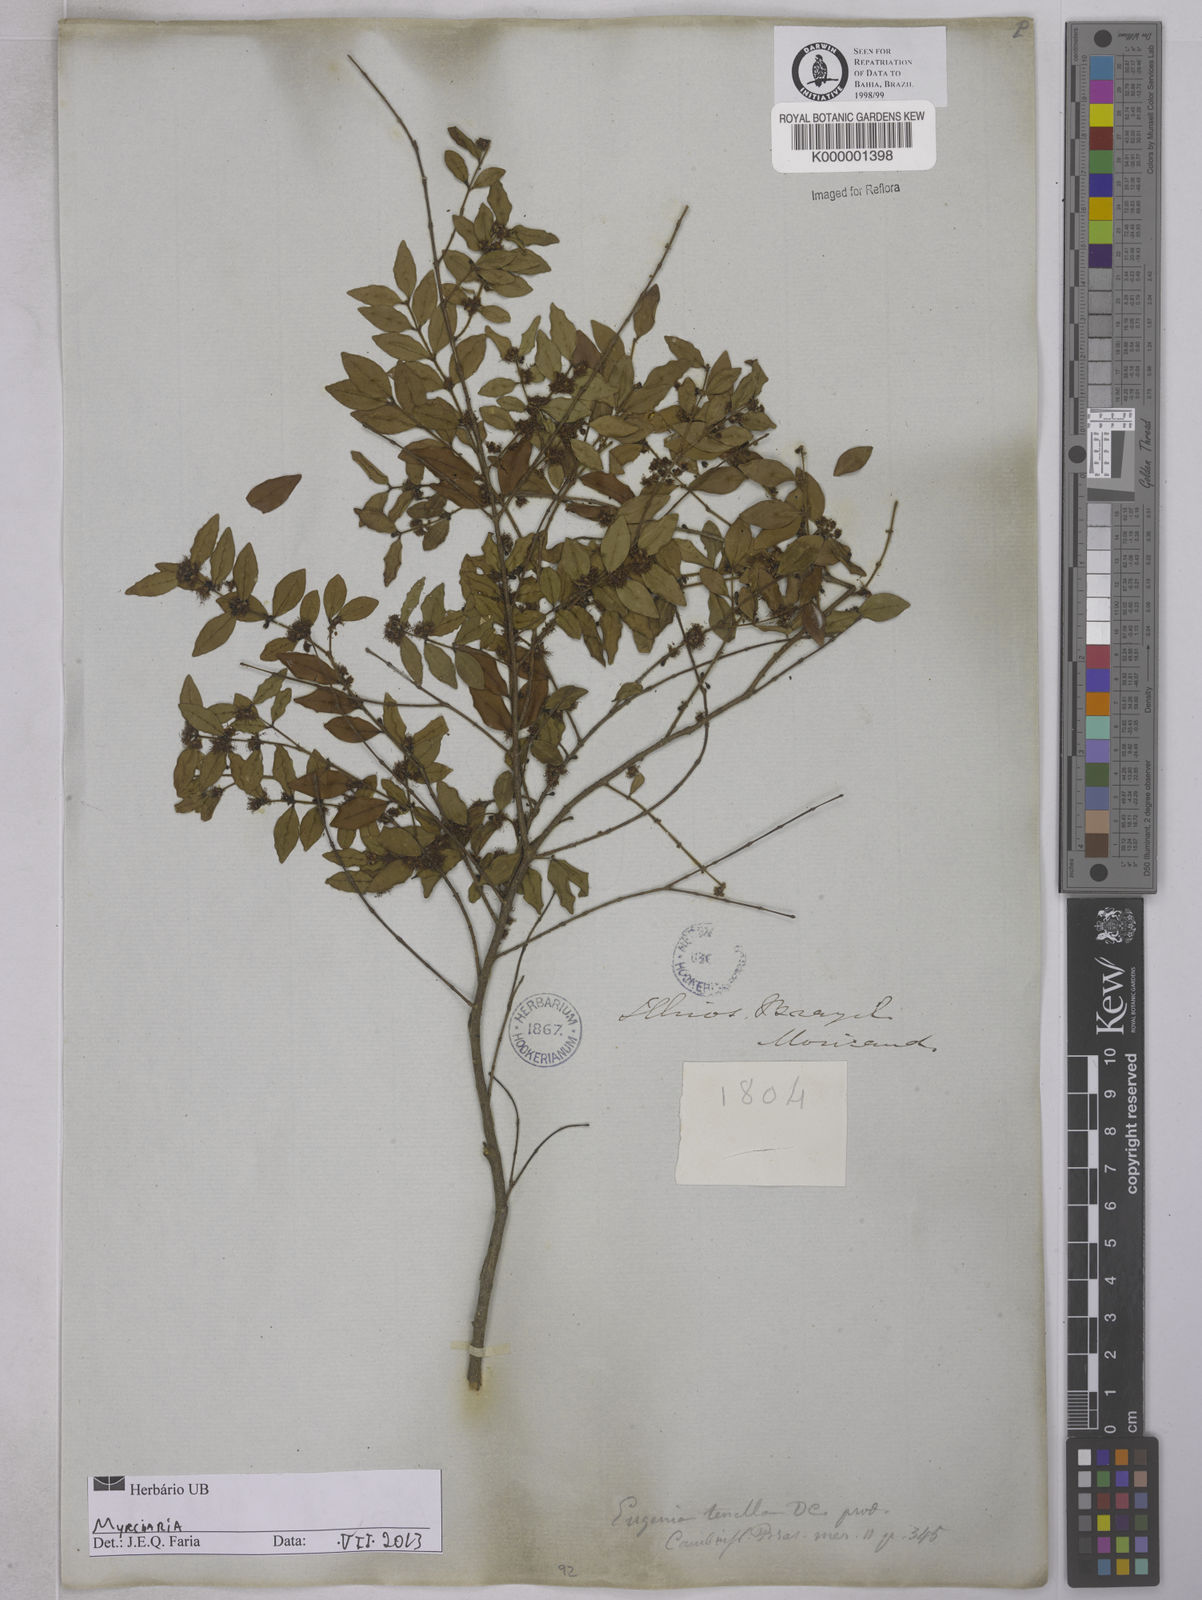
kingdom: Plantae
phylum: Tracheophyta
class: Magnoliopsida
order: Myrtales
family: Myrtaceae
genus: Myrciaria
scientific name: Myrciaria
